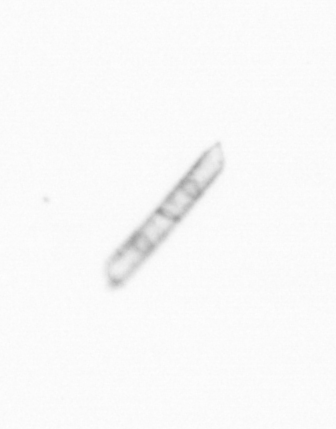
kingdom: Chromista
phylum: Ochrophyta
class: Bacillariophyceae
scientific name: Bacillariophyceae
